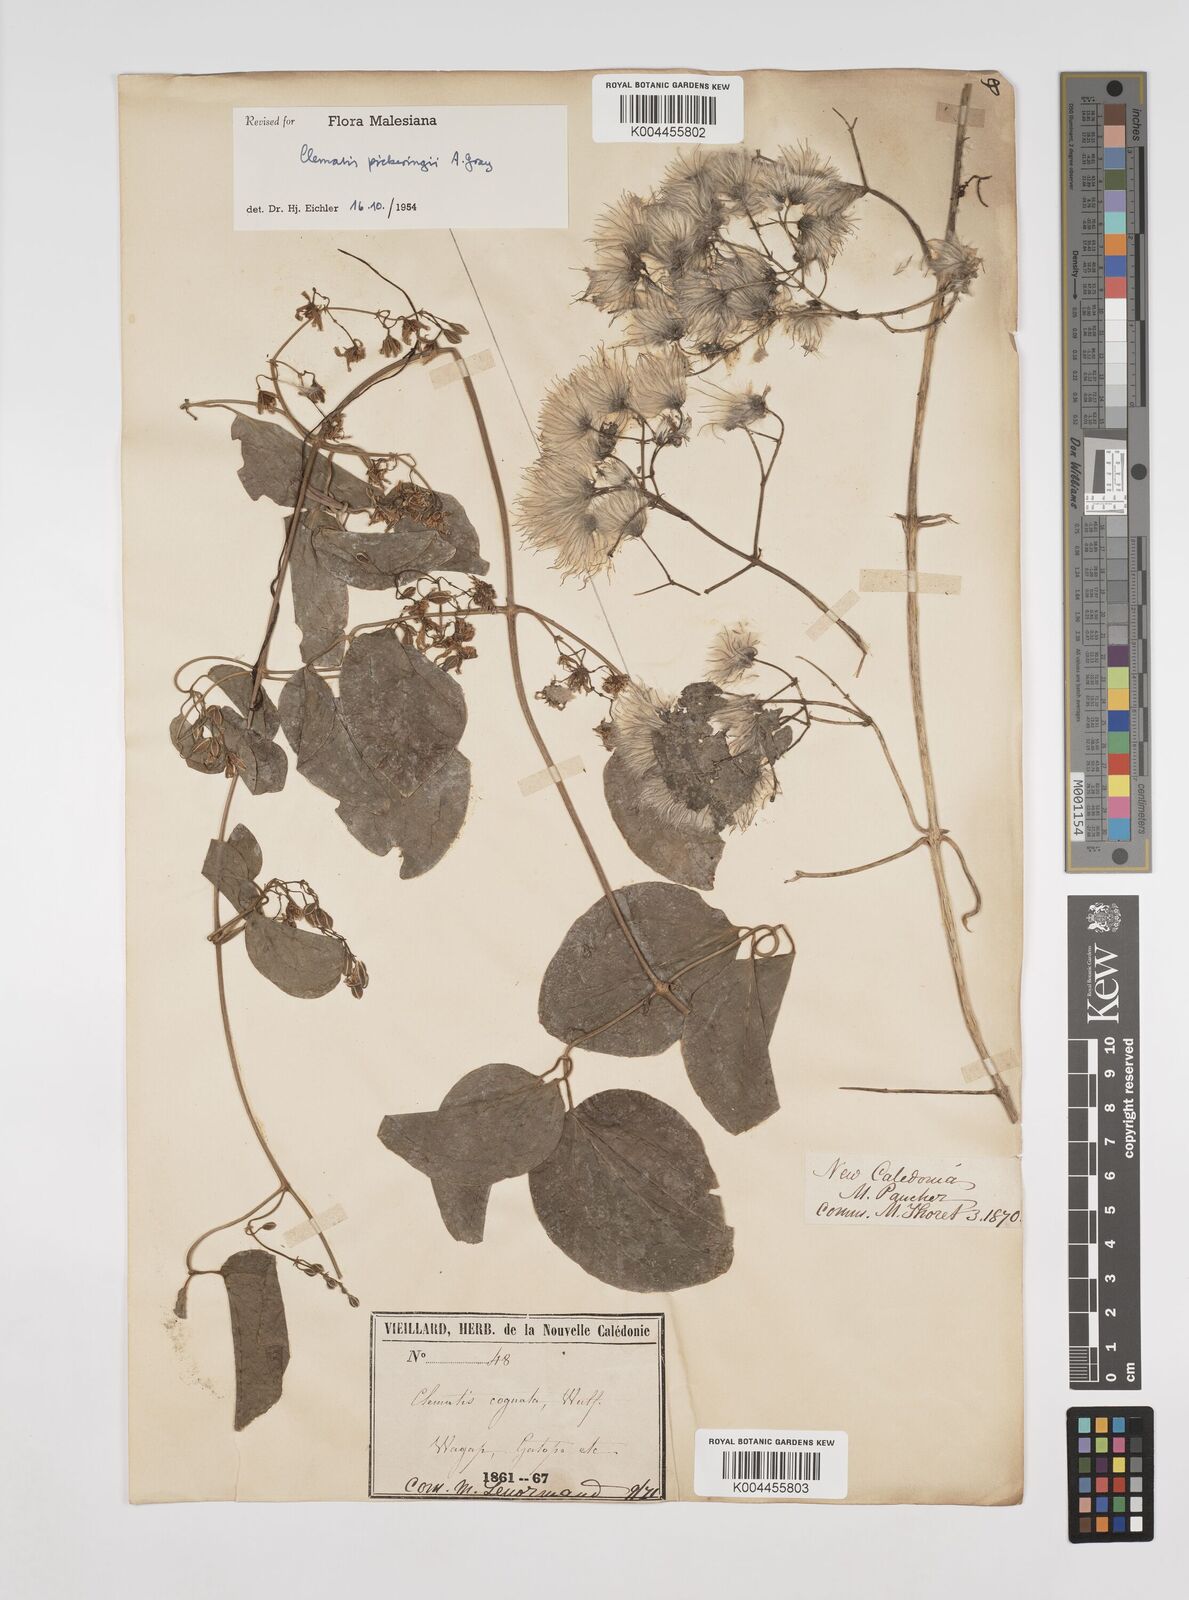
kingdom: Plantae
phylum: Tracheophyta
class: Magnoliopsida
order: Ranunculales
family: Ranunculaceae
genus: Clematis
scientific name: Clematis pickeringii
